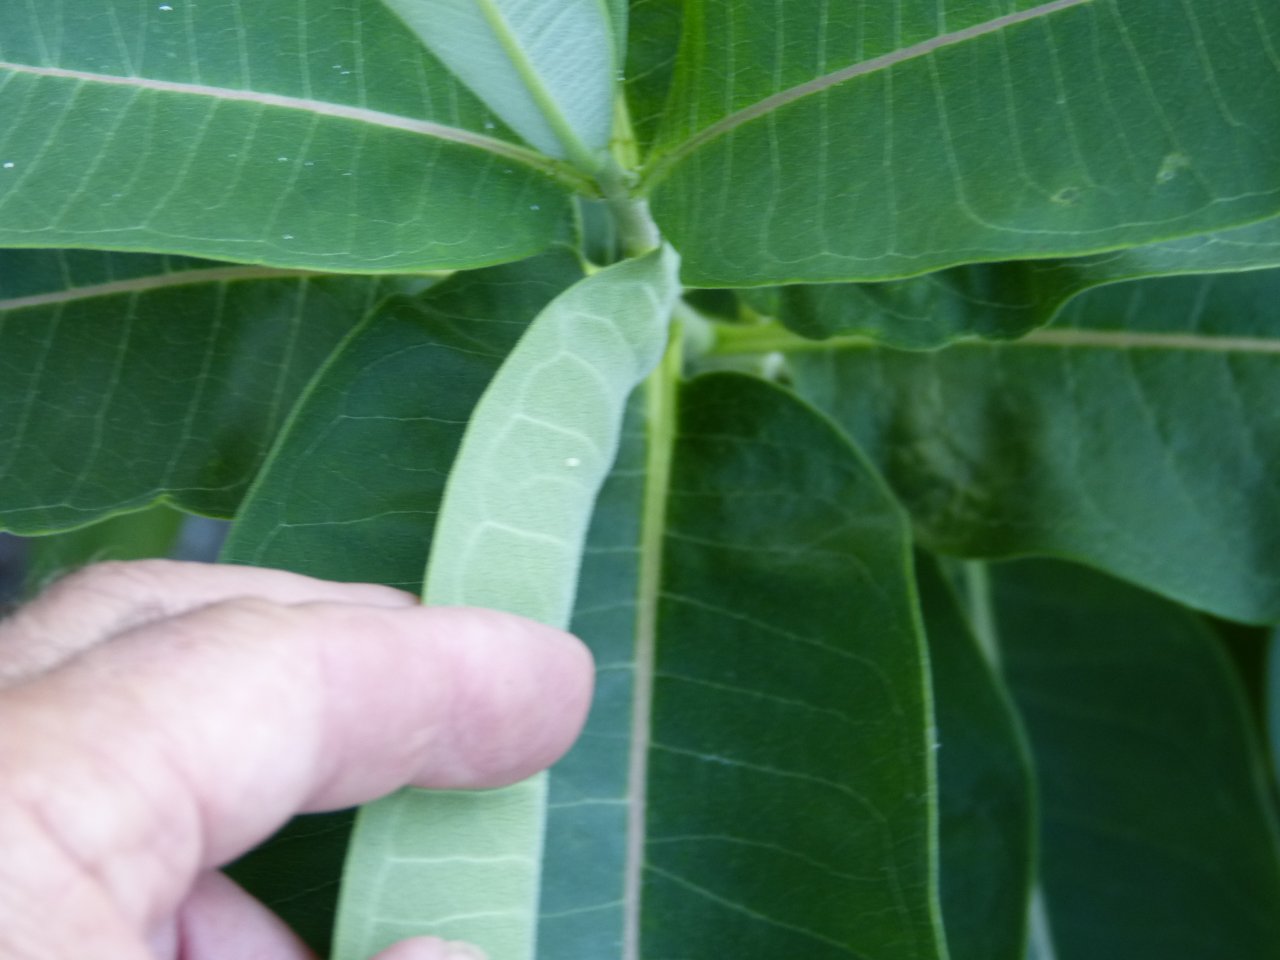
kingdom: Animalia
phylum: Arthropoda
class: Insecta
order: Lepidoptera
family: Nymphalidae
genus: Danaus
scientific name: Danaus plexippus
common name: Monarch
